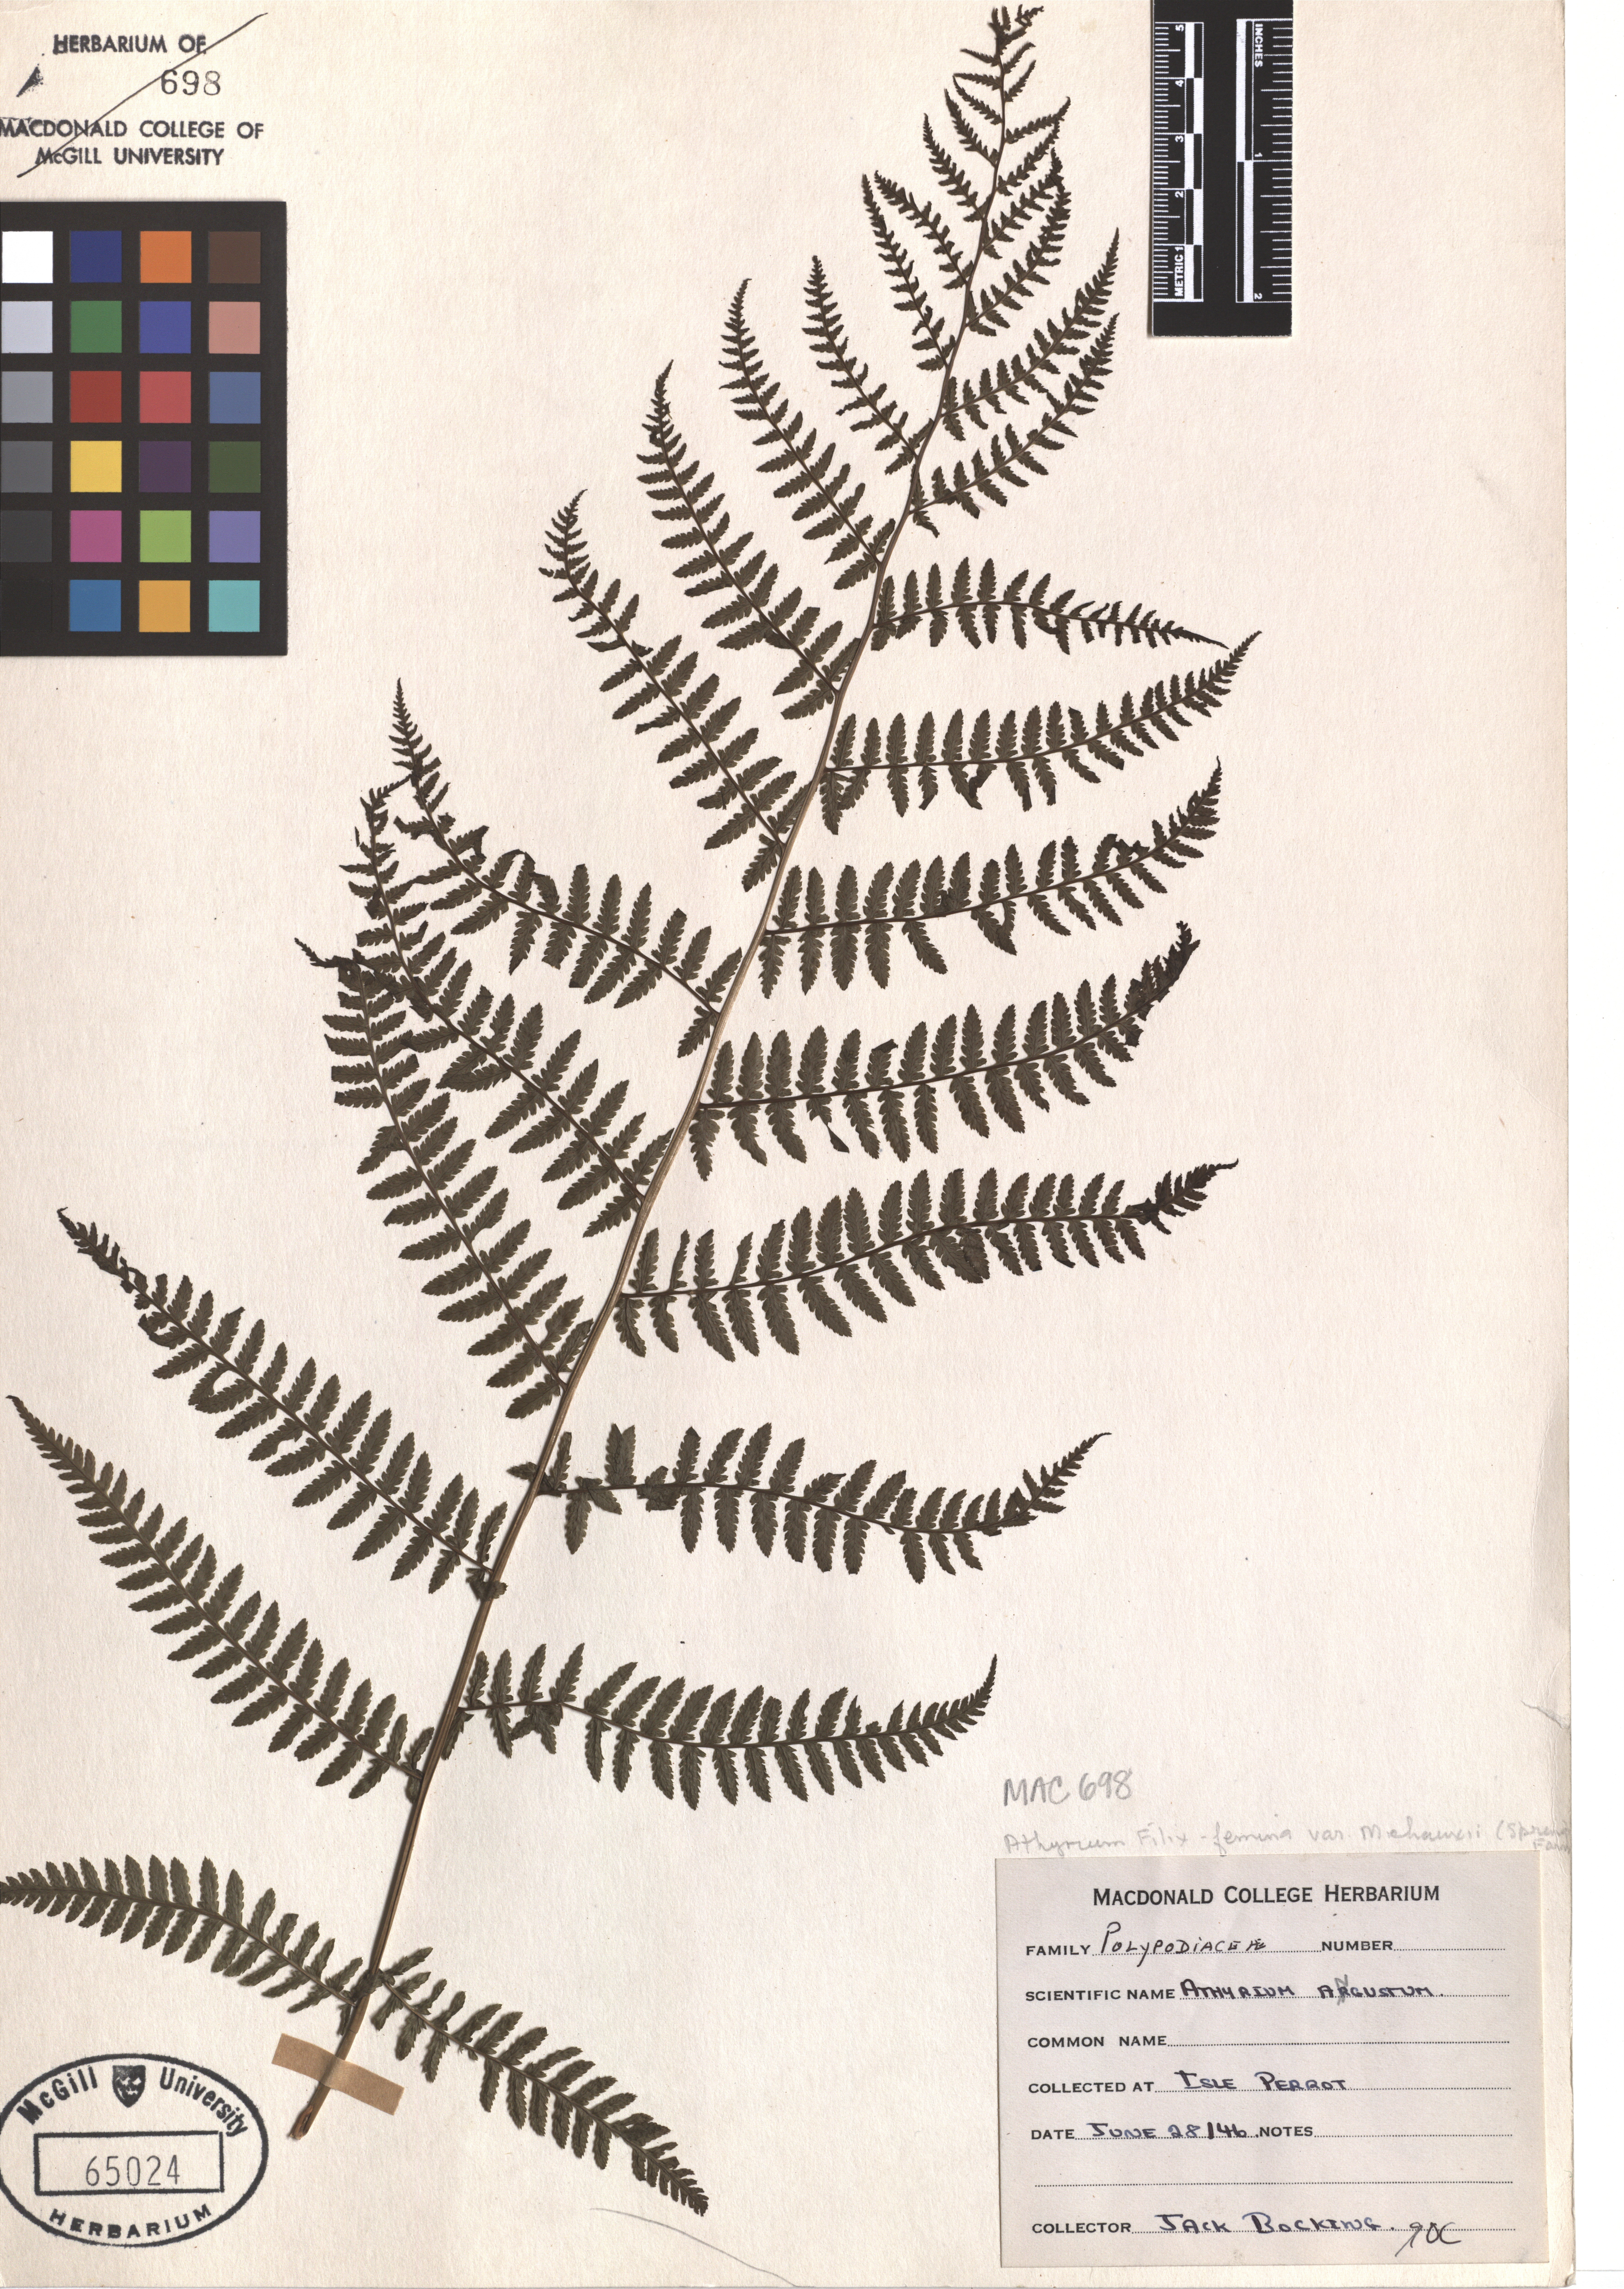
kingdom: Plantae
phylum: Tracheophyta
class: Polypodiopsida
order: Polypodiales
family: Athyriaceae
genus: Athyrium
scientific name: Athyrium filix-femina
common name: Lady fern
